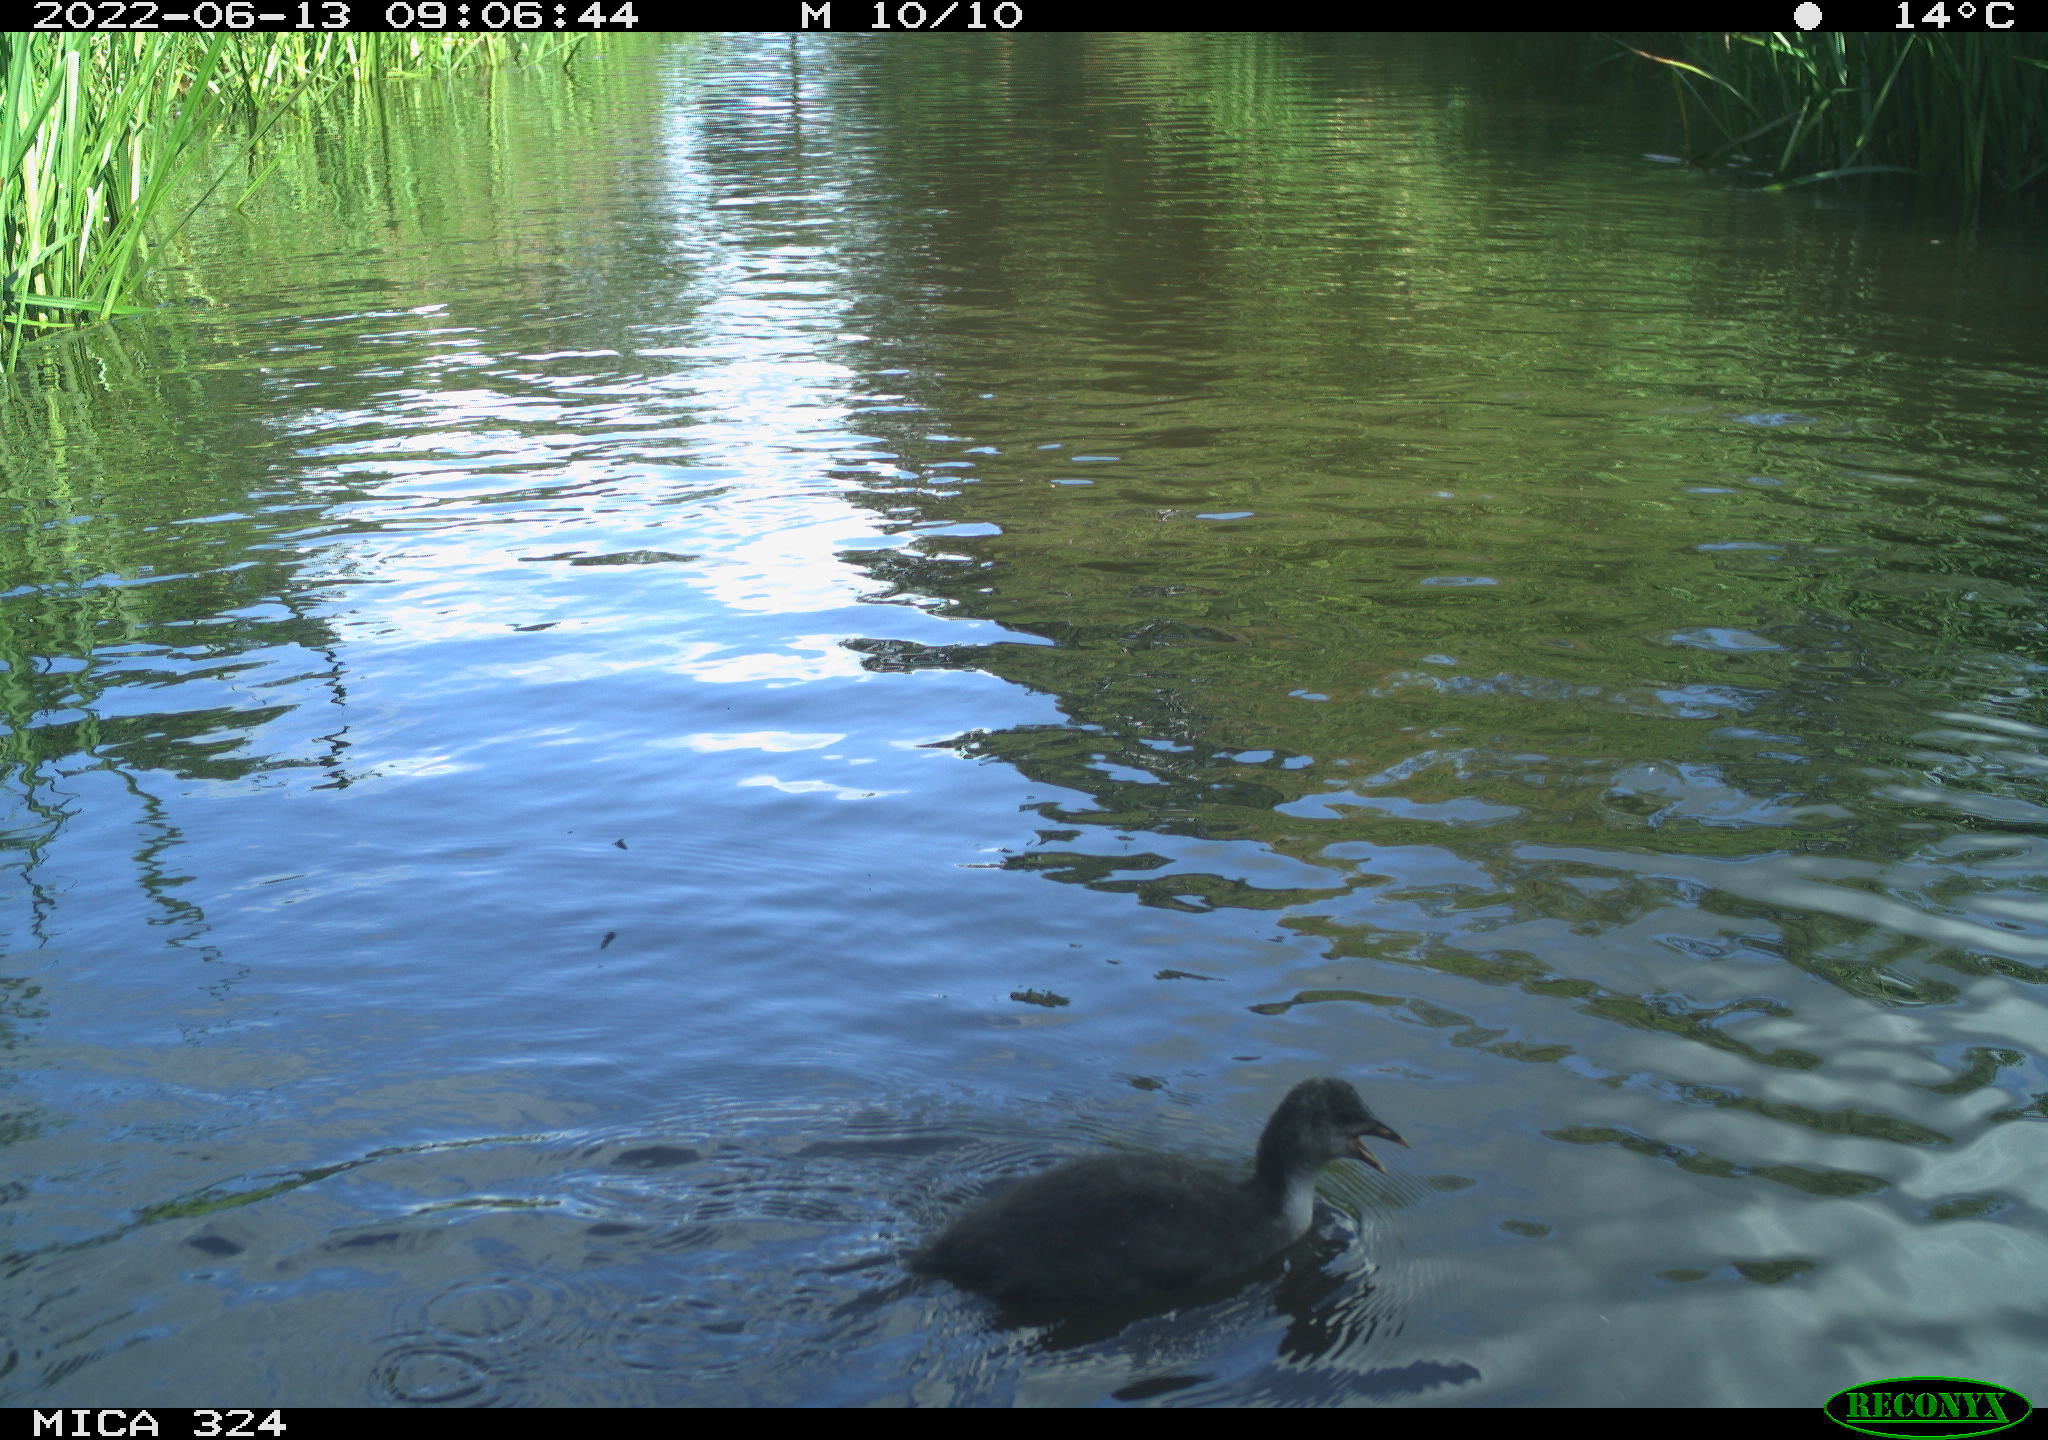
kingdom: Animalia
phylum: Chordata
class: Aves
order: Gruiformes
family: Rallidae
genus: Fulica
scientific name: Fulica atra
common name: Eurasian coot
